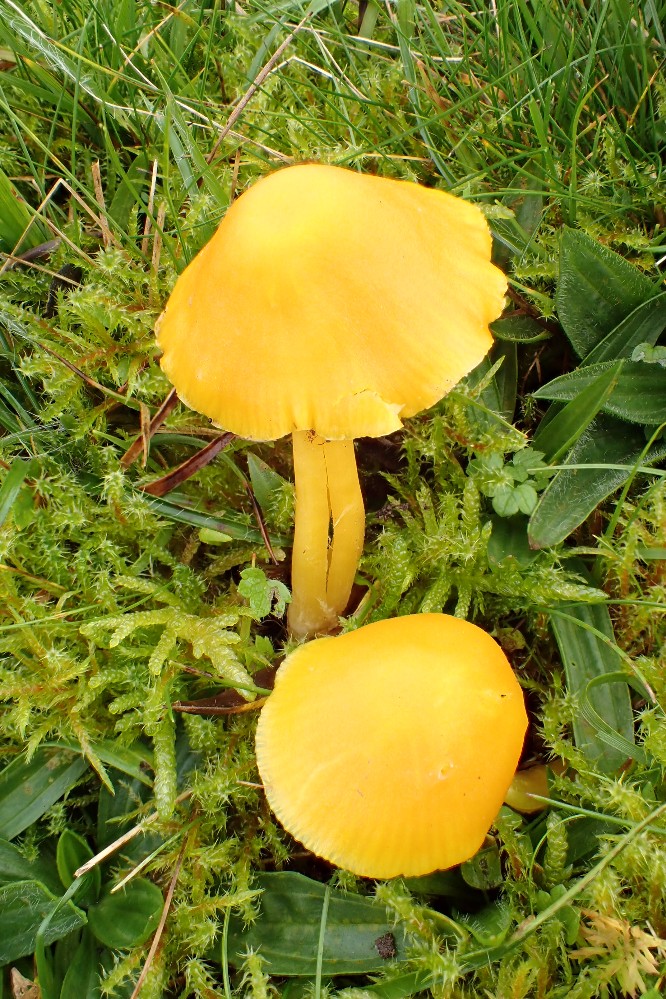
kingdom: Fungi
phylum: Basidiomycota
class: Agaricomycetes
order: Agaricales
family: Hygrophoraceae
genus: Hygrocybe
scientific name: Hygrocybe chlorophana
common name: gul vokshat
